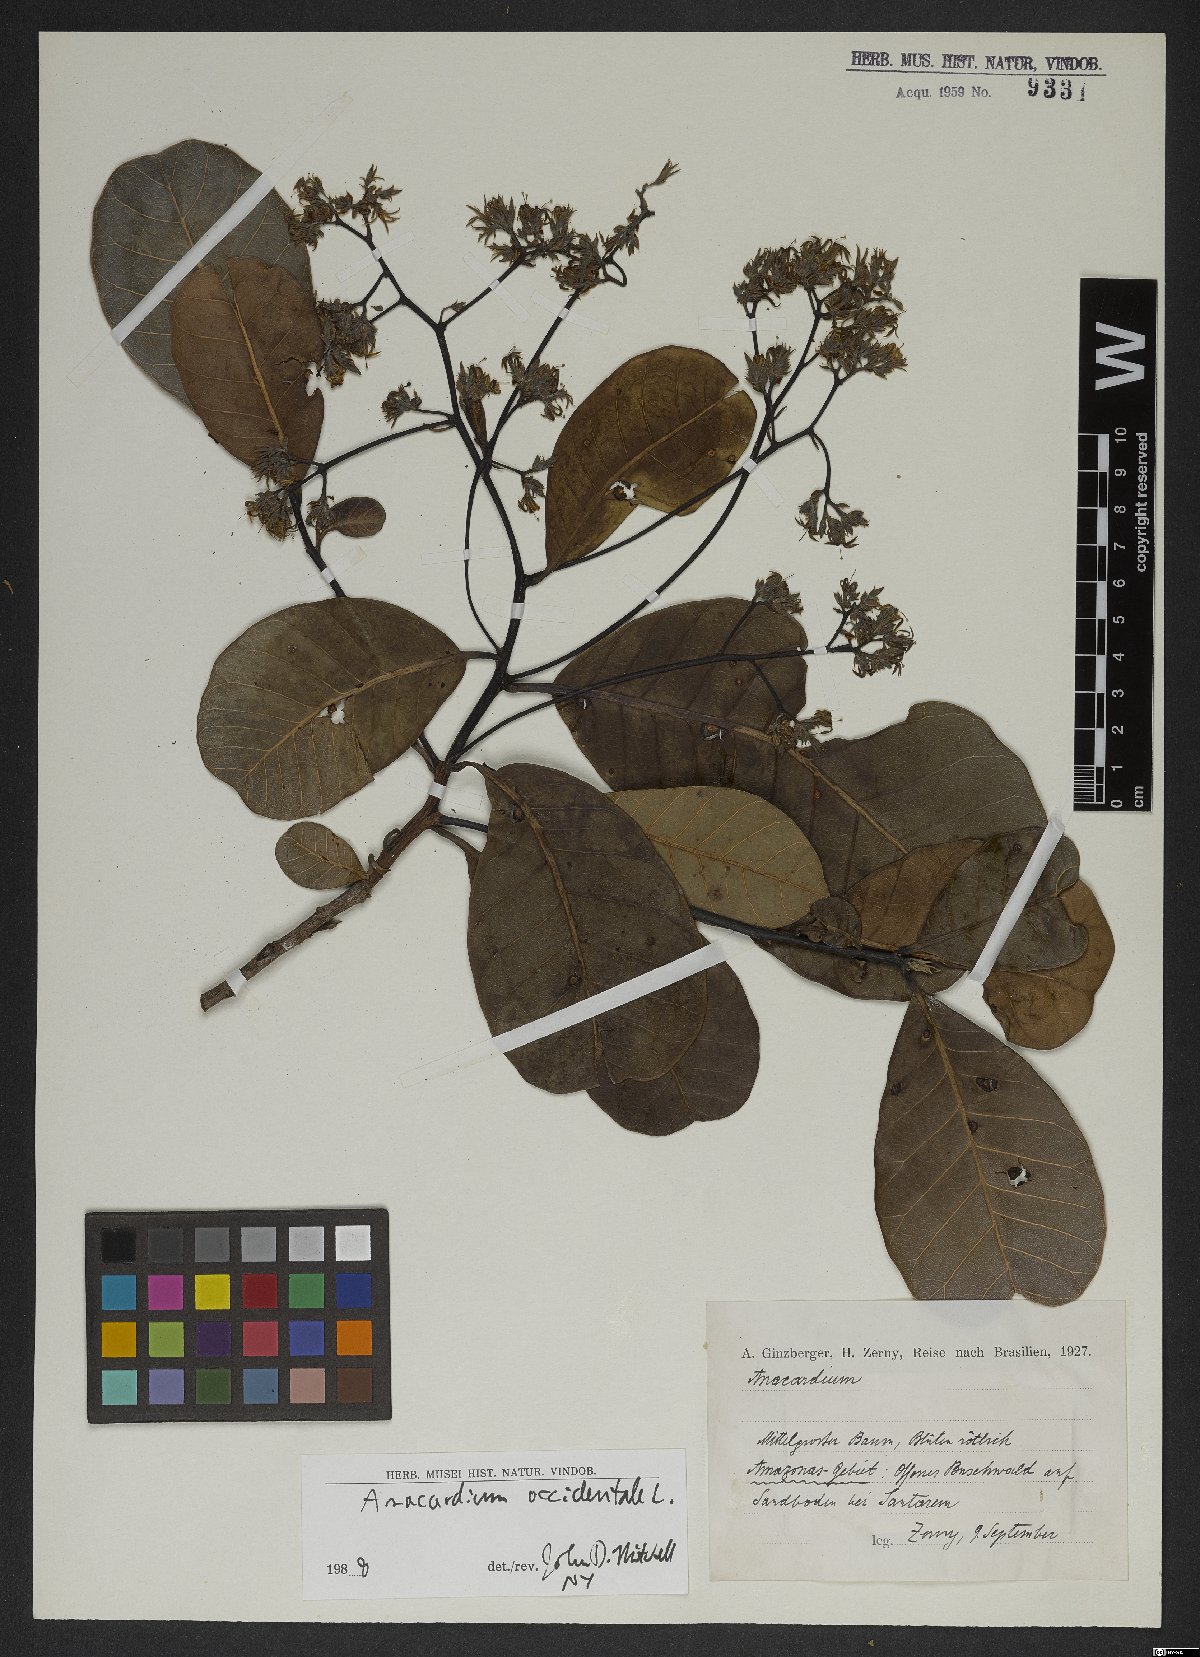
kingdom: Plantae
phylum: Tracheophyta
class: Magnoliopsida
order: Sapindales
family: Anacardiaceae
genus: Anacardium
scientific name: Anacardium occidentale
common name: Cashew
